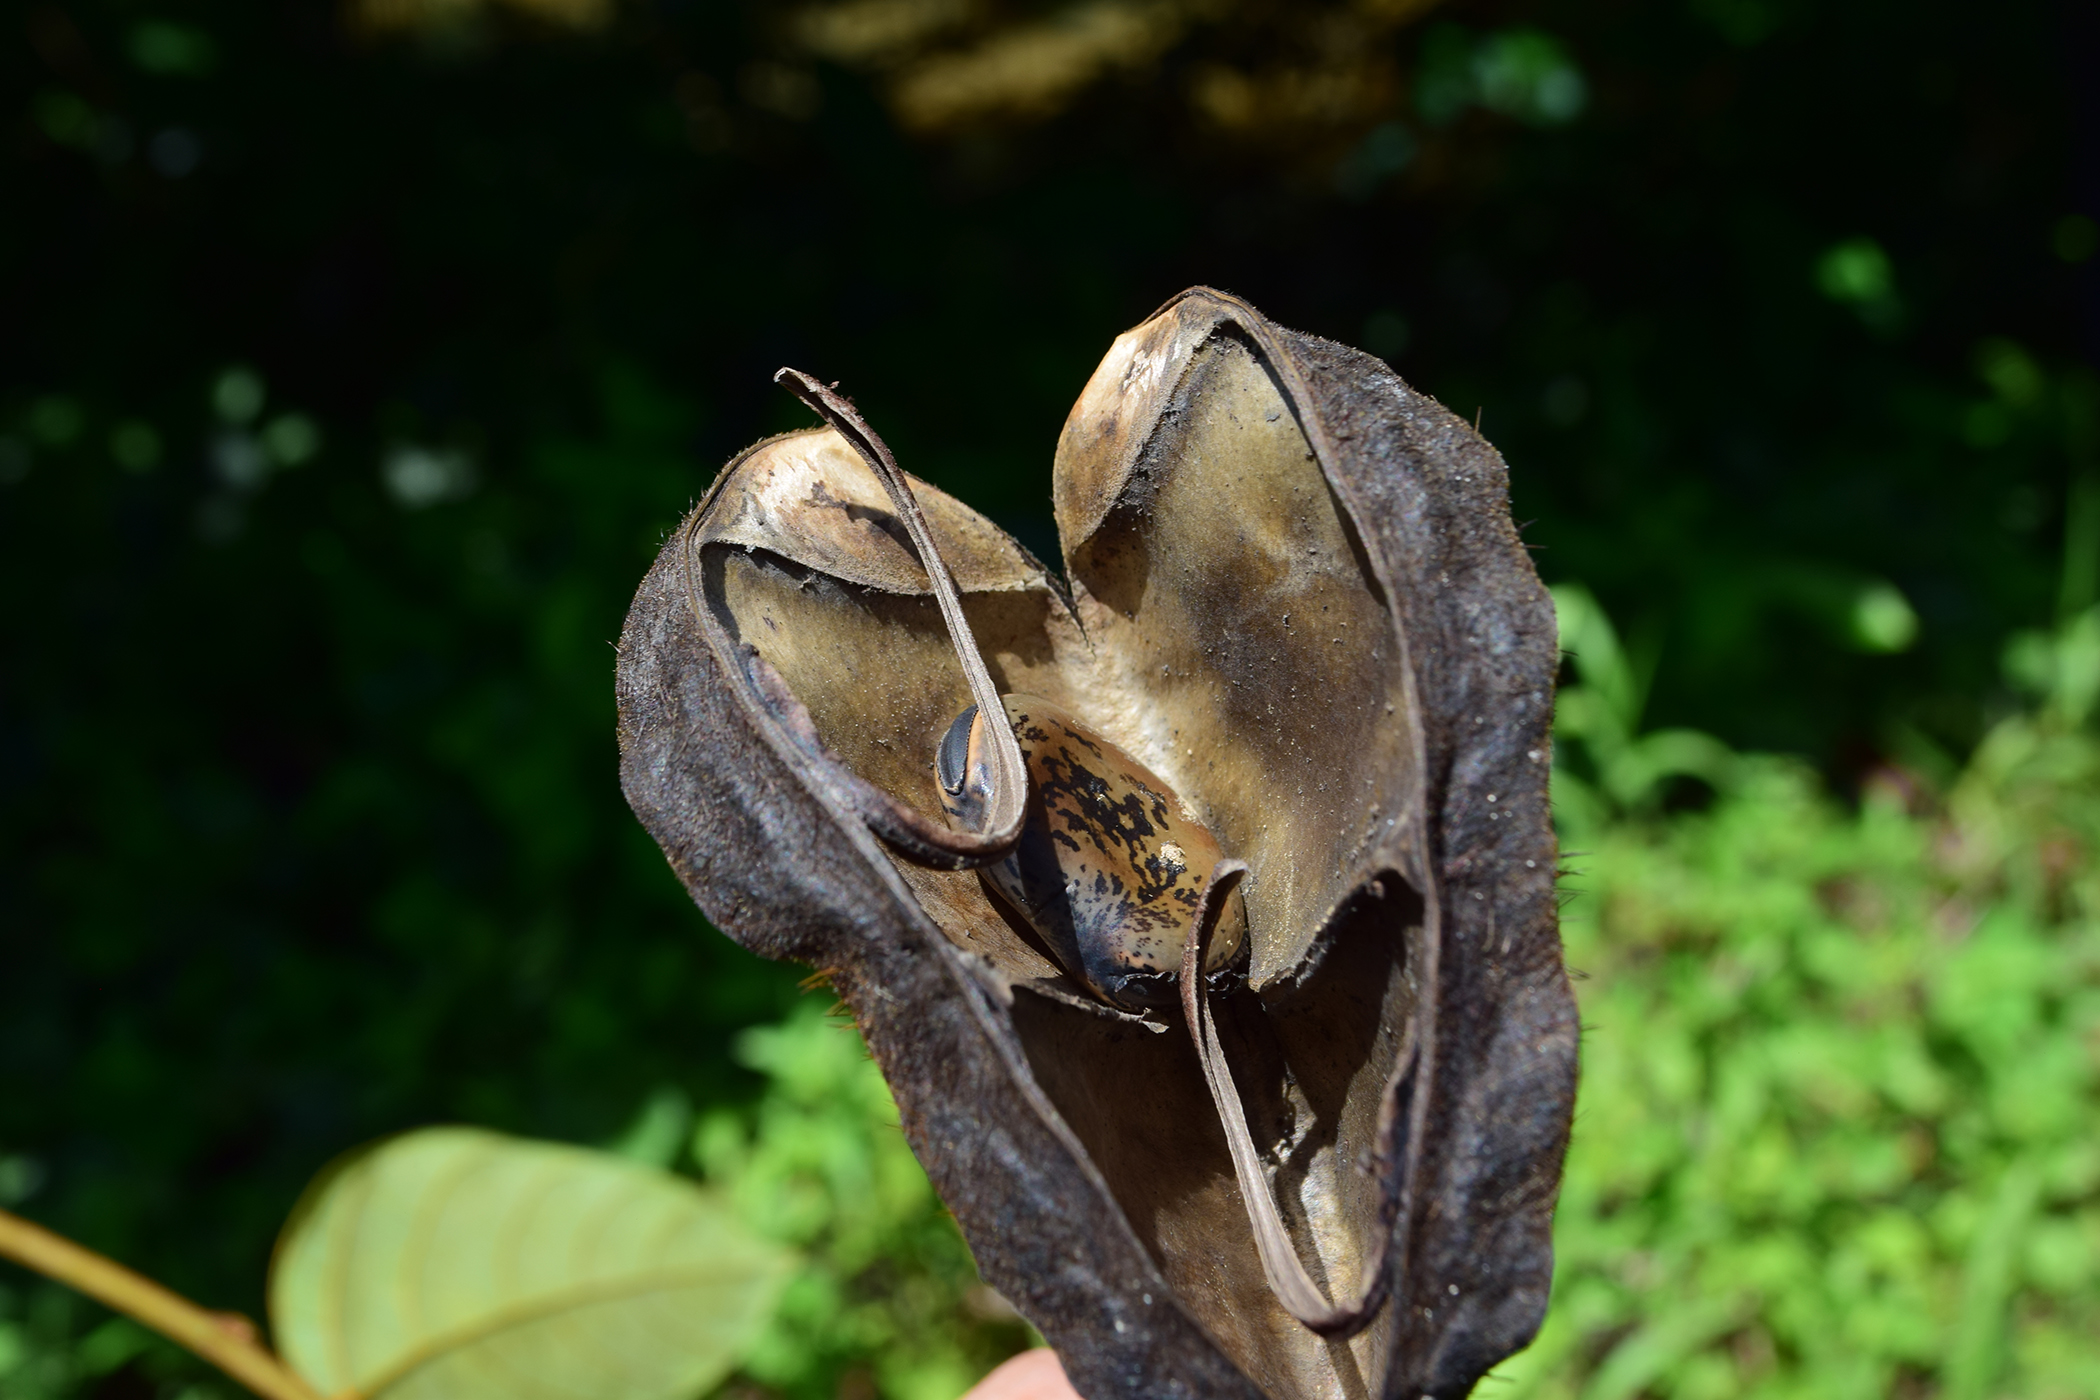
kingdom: Plantae
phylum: Tracheophyta
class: Magnoliopsida
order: Fabales
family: Fabaceae
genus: Mucuna
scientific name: Mucuna oligoplax
